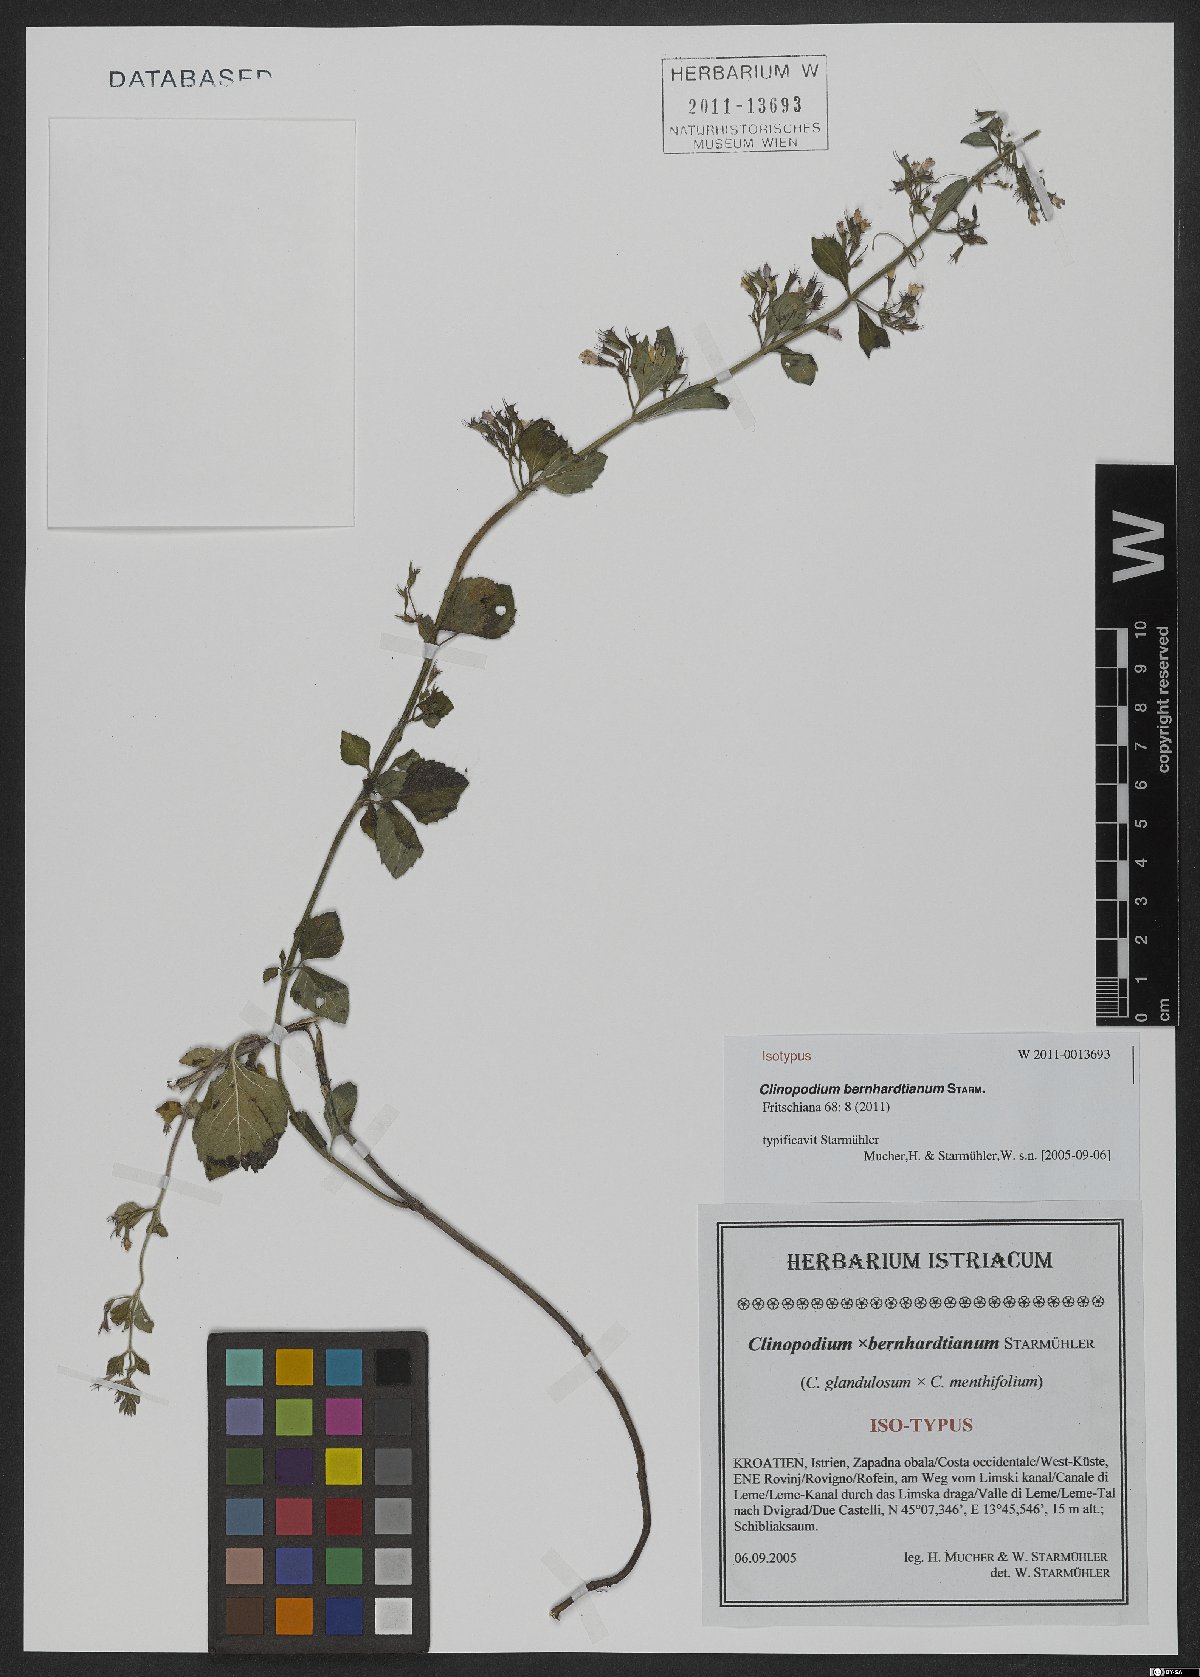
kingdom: Plantae
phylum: Tracheophyta
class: Magnoliopsida
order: Lamiales
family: Lamiaceae
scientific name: Lamiaceae
